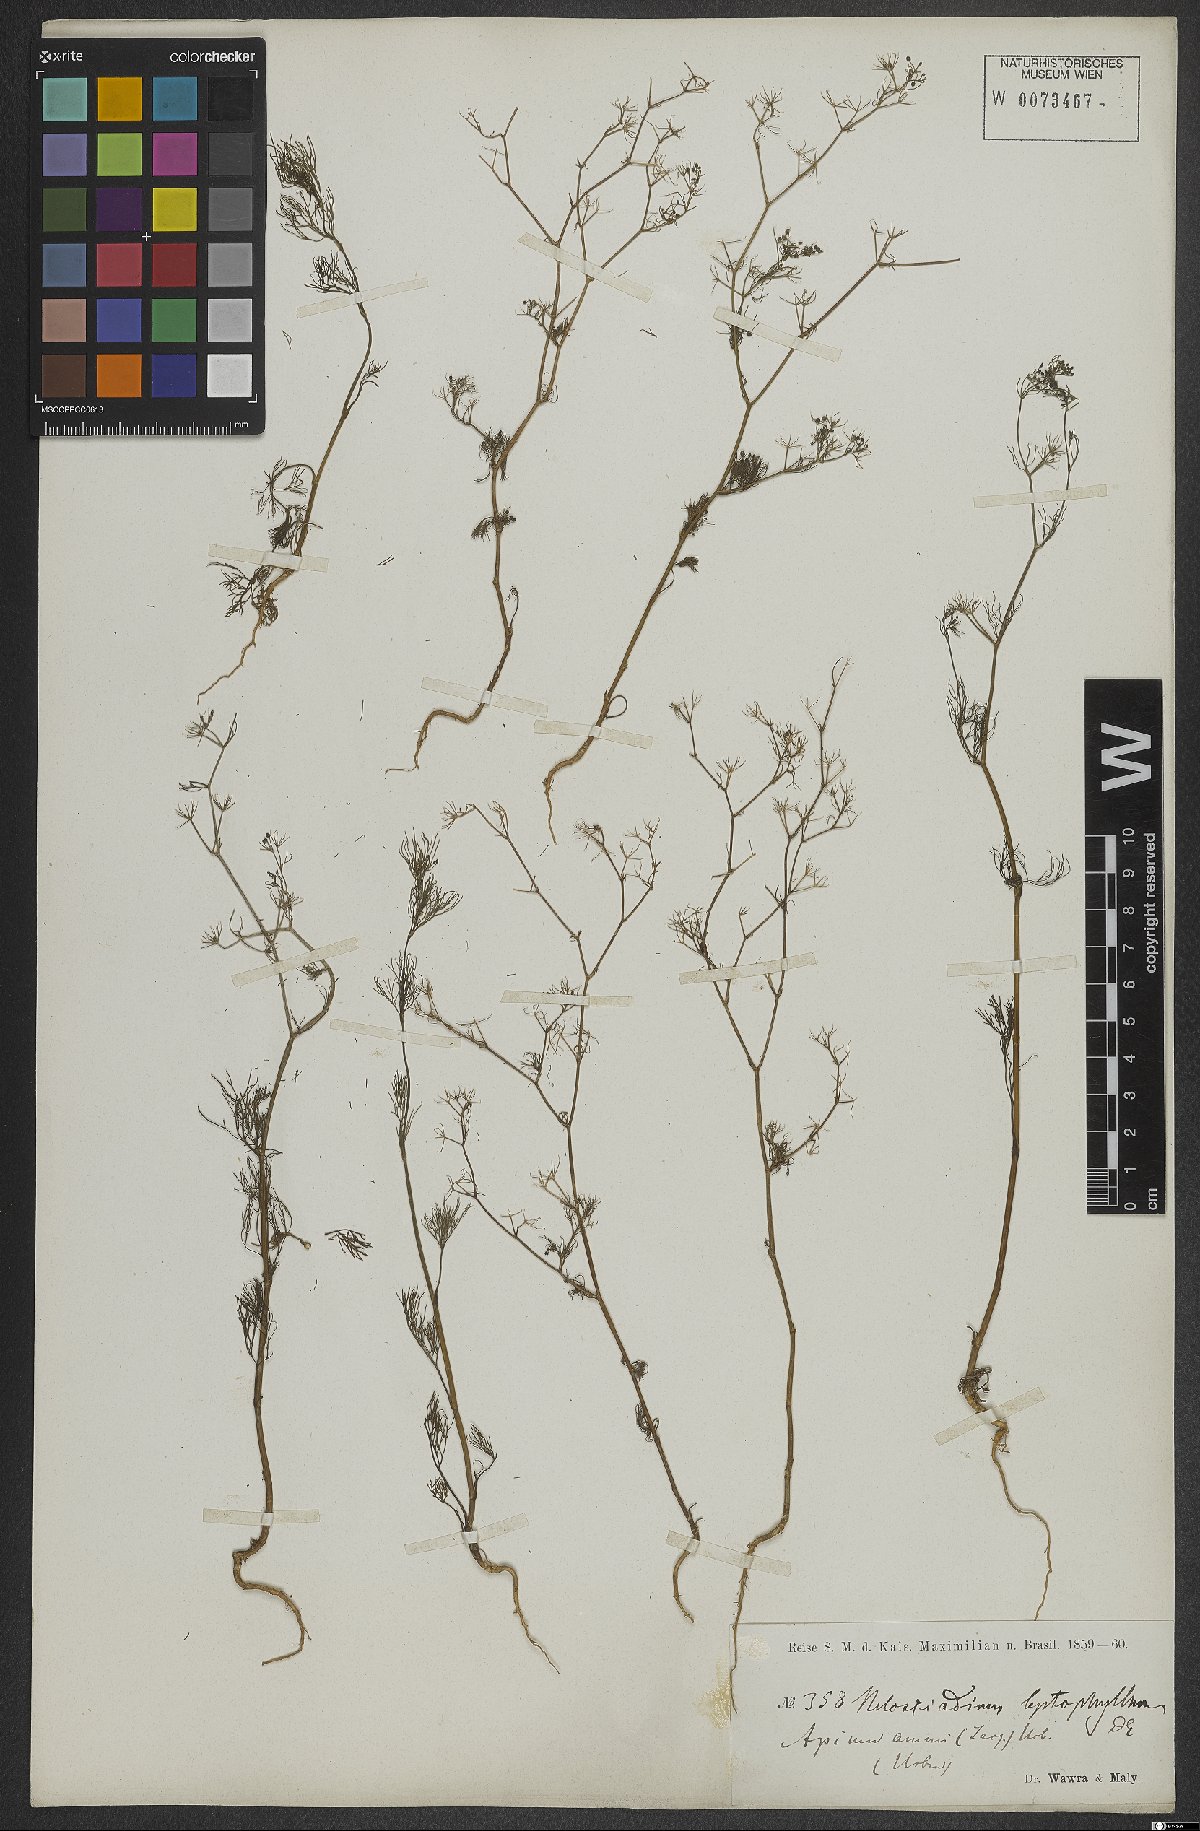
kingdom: Plantae
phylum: Tracheophyta
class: Magnoliopsida
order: Apiales
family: Apiaceae
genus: Cyclospermum
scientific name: Cyclospermum leptophyllum
